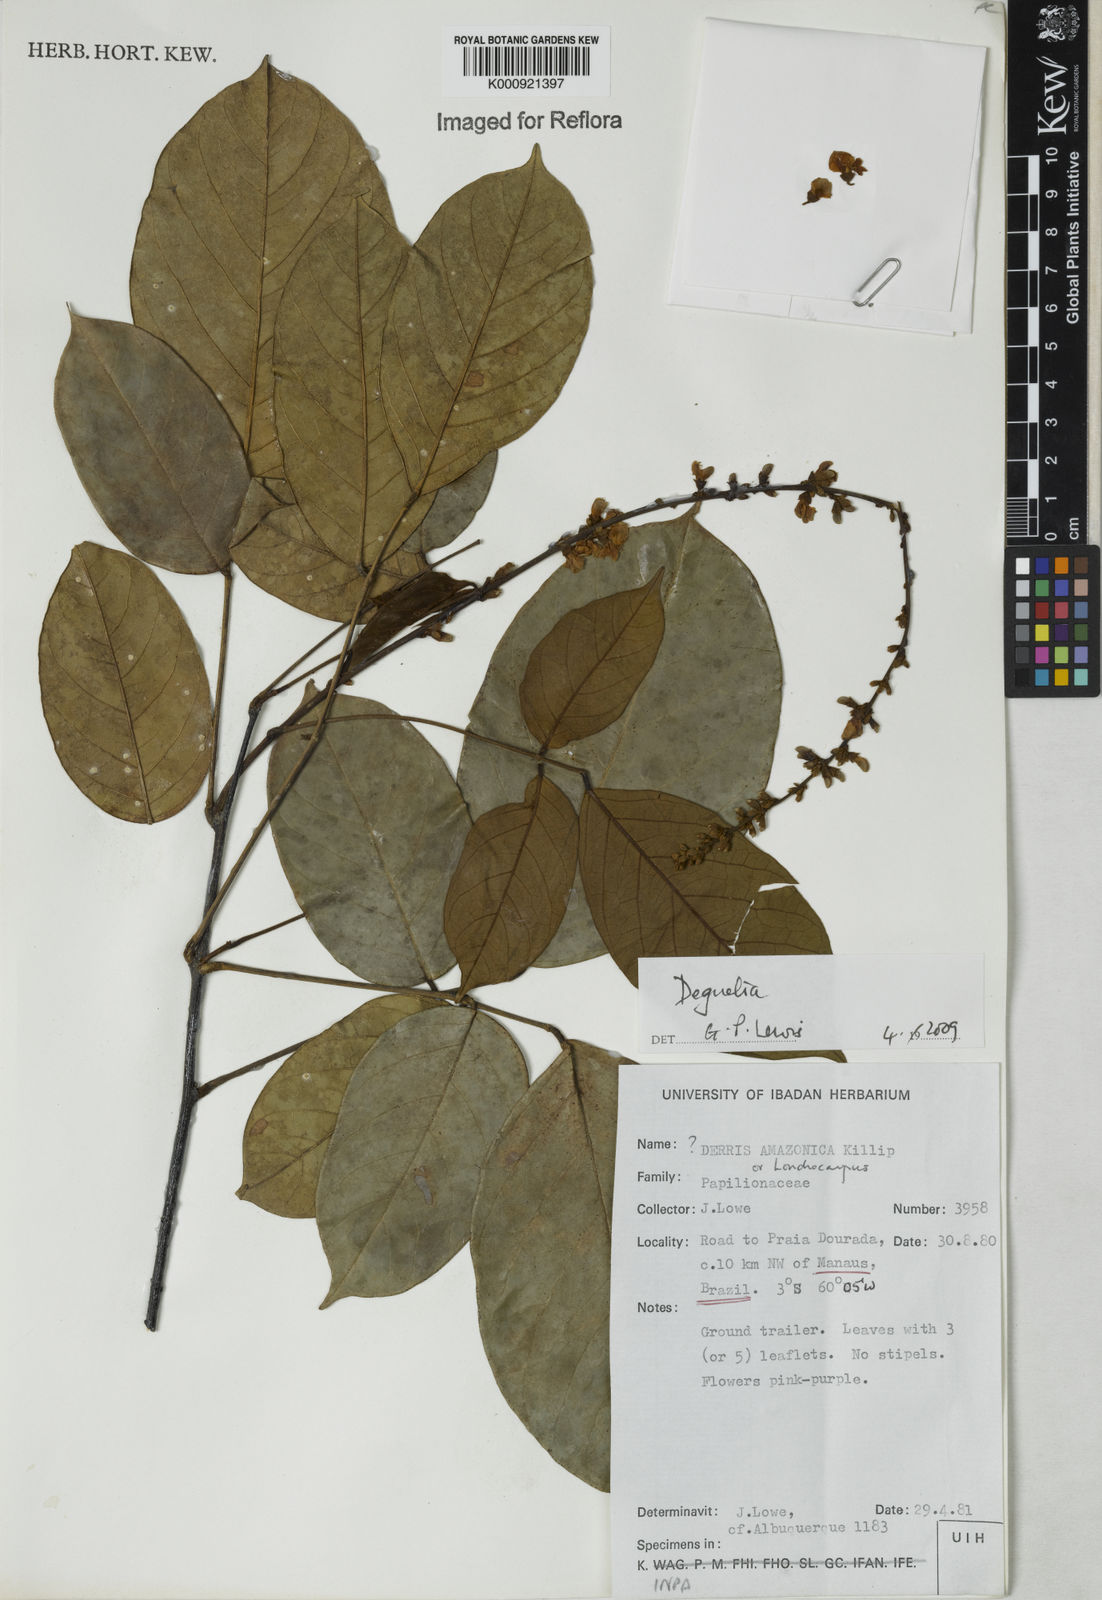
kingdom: Plantae
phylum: Tracheophyta
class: Magnoliopsida
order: Fabales
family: Fabaceae
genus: Deguelia
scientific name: Deguelia
